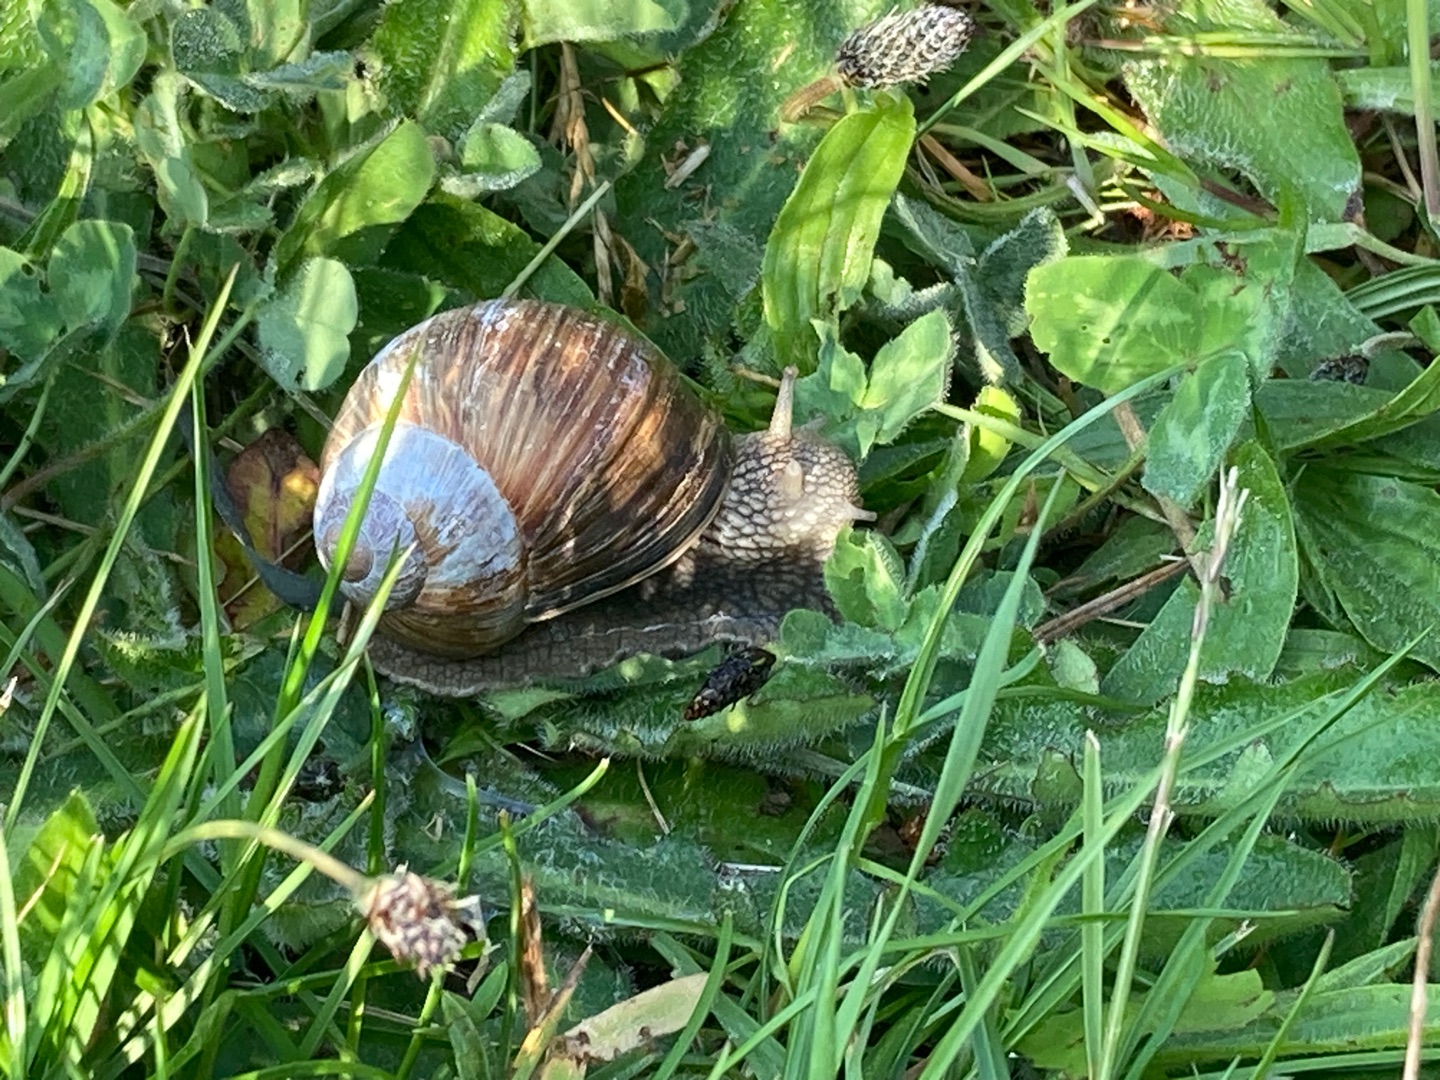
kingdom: Animalia
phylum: Mollusca
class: Gastropoda
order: Stylommatophora
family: Helicidae
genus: Helix
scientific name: Helix pomatia
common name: Vinbjergsnegl
